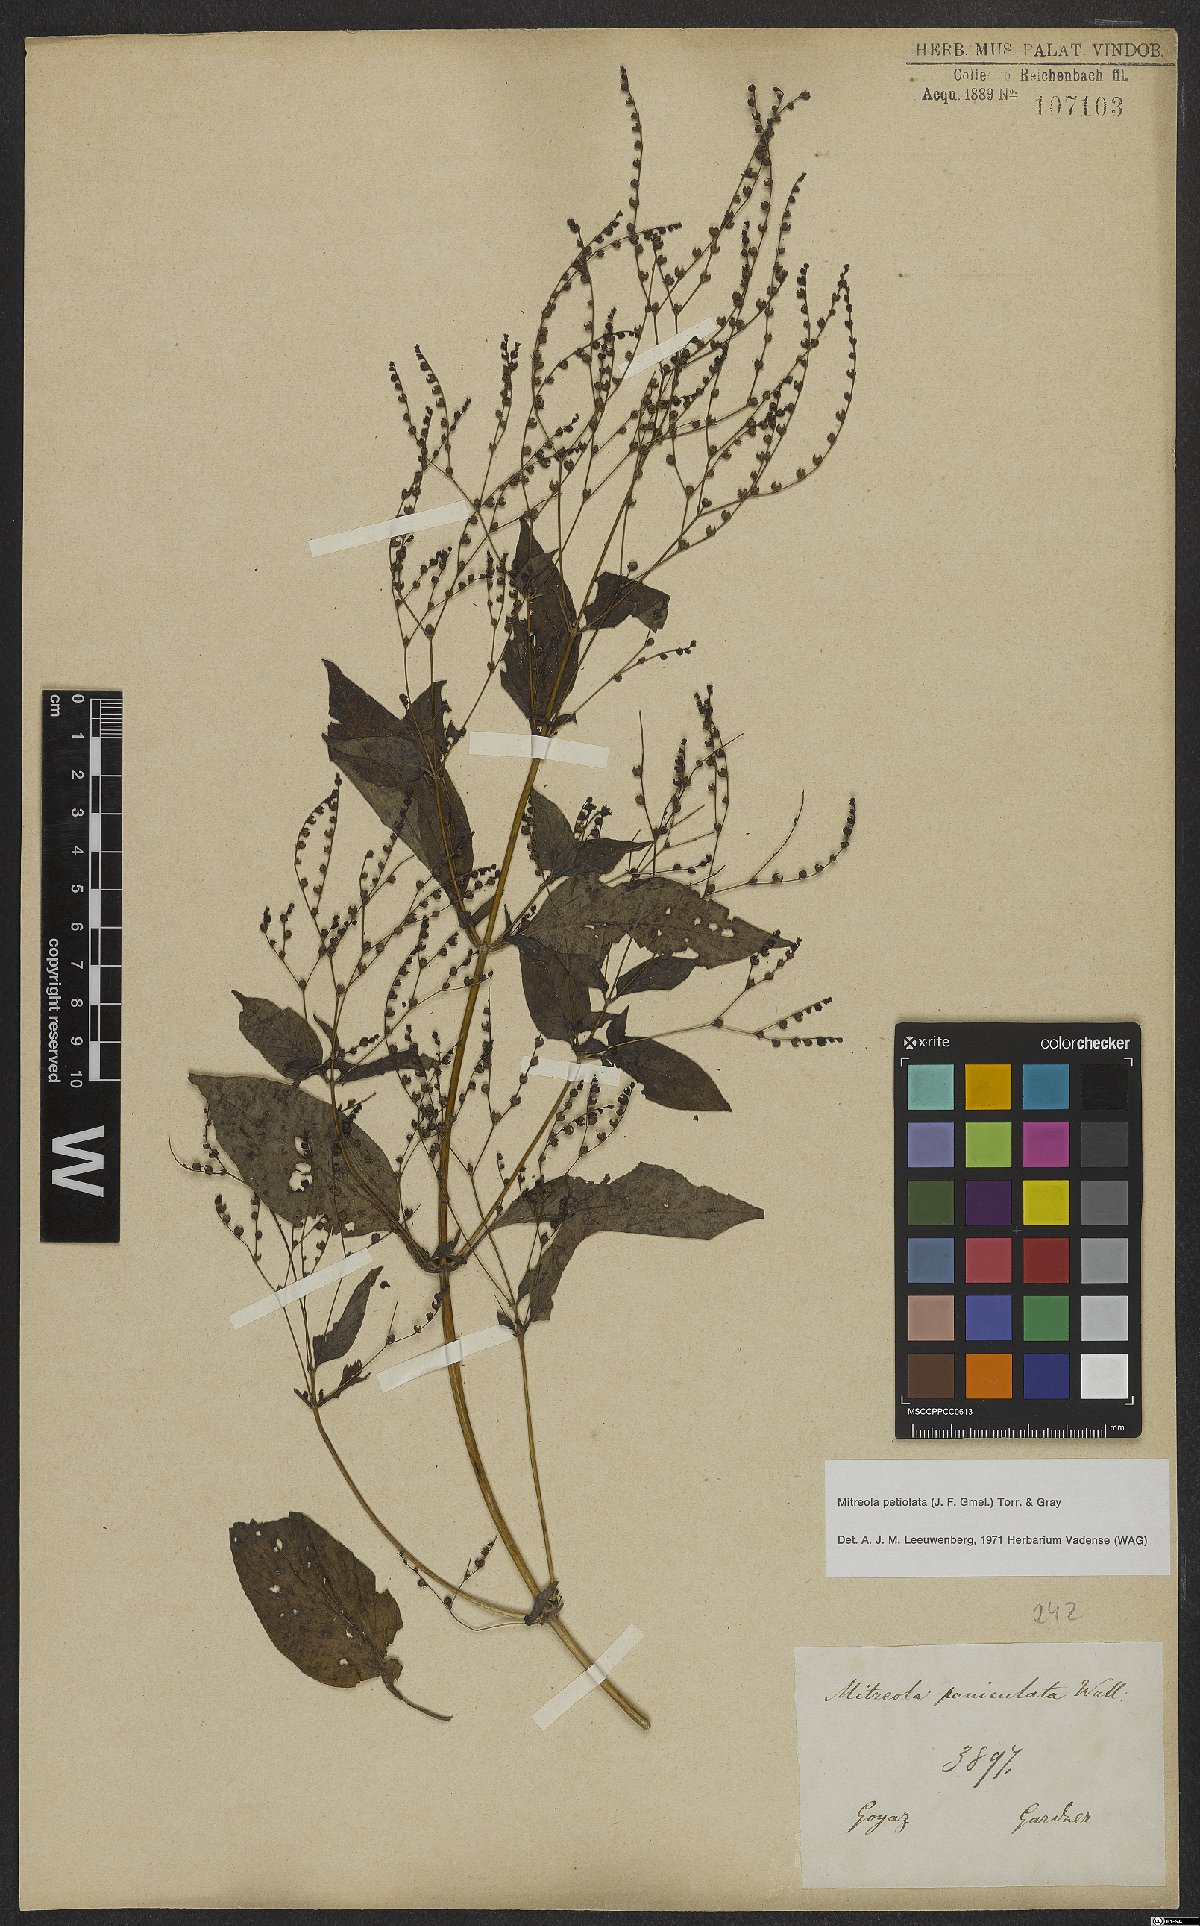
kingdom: Plantae
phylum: Tracheophyta
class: Magnoliopsida
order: Gentianales
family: Loganiaceae
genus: Mitreola
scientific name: Mitreola petiolata
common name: Lax hornpod
